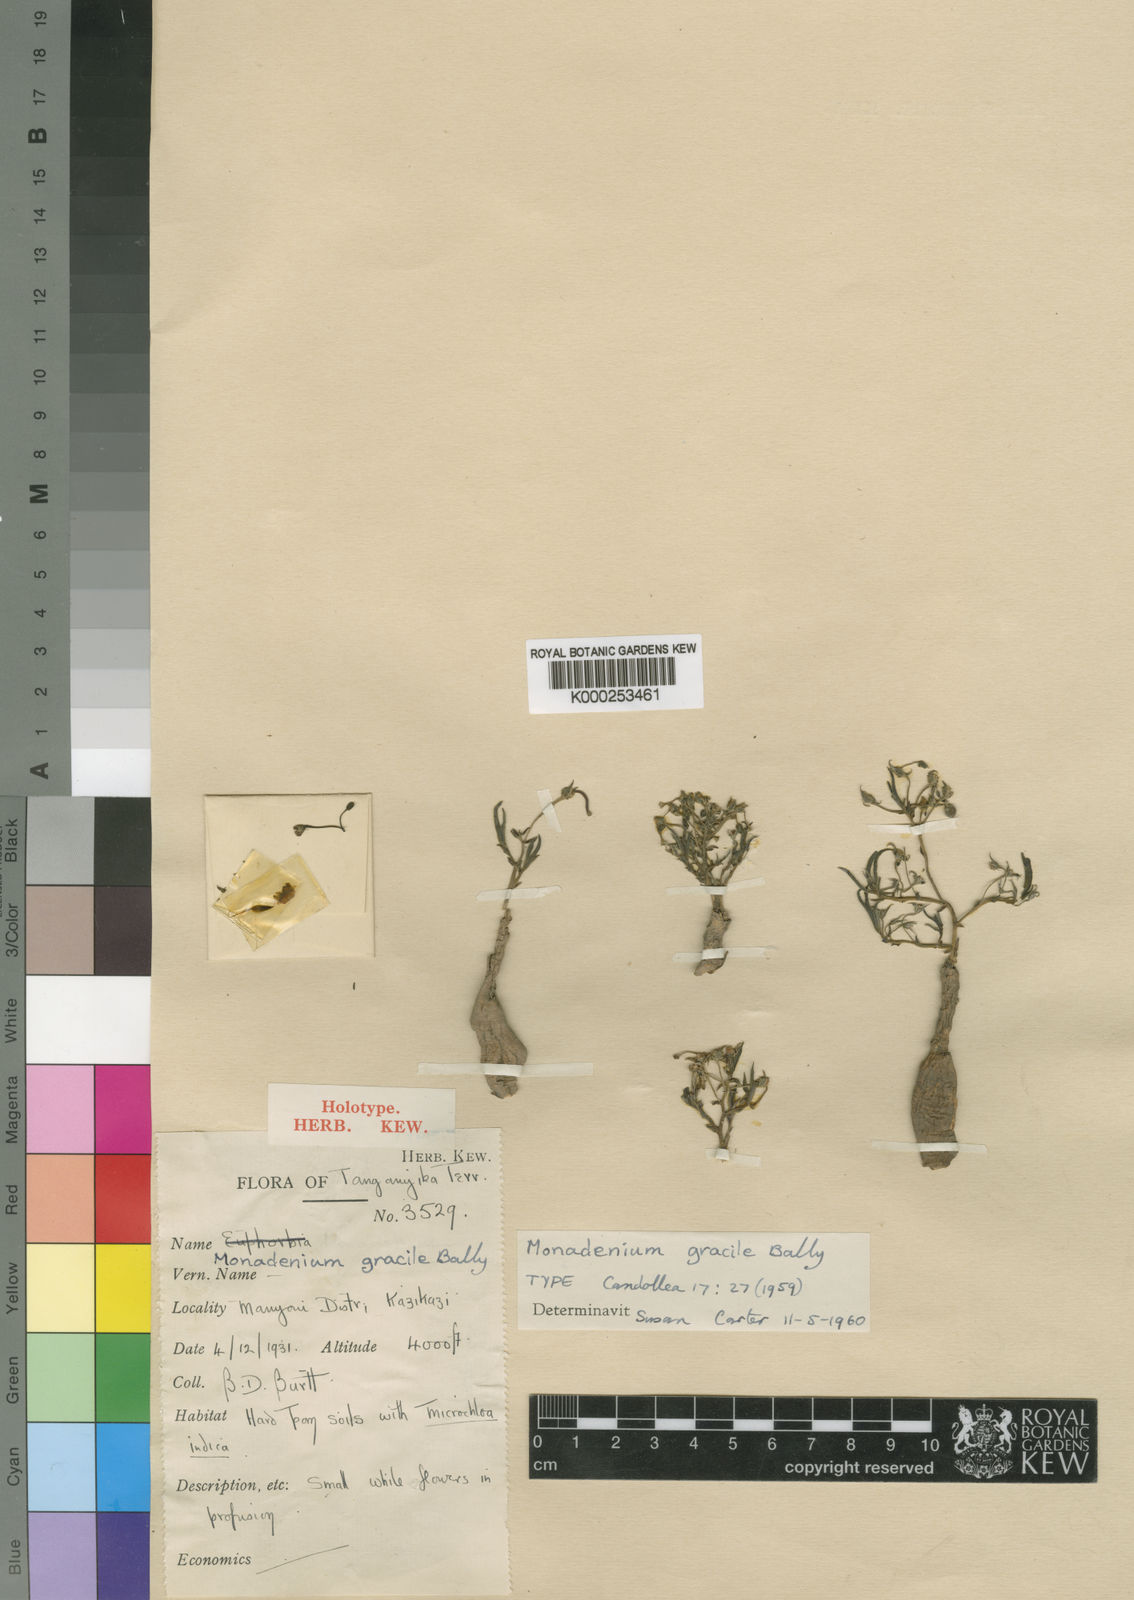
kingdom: Plantae
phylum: Tracheophyta
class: Magnoliopsida
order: Malpighiales
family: Euphorbiaceae
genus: Euphorbia
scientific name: Euphorbia neogracilis
